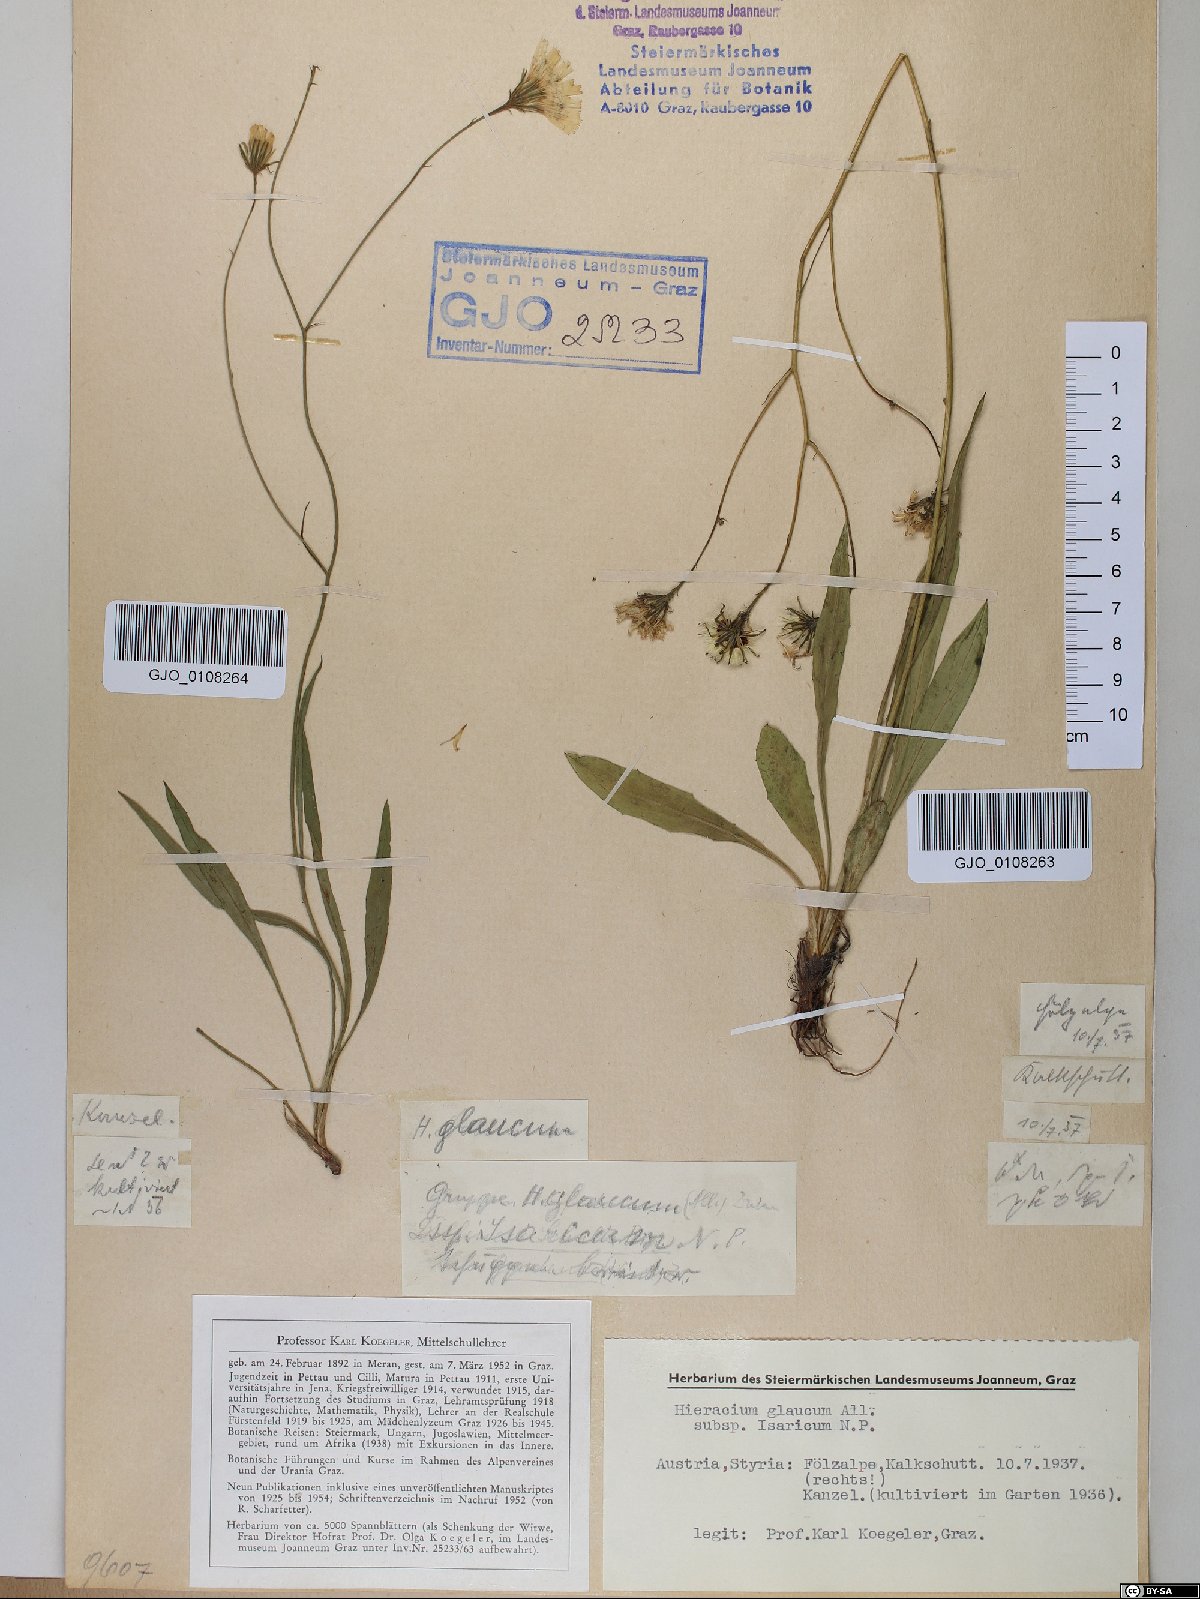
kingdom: Plantae
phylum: Tracheophyta
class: Magnoliopsida
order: Asterales
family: Asteraceae
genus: Hieracium
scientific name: Hieracium glaucum
